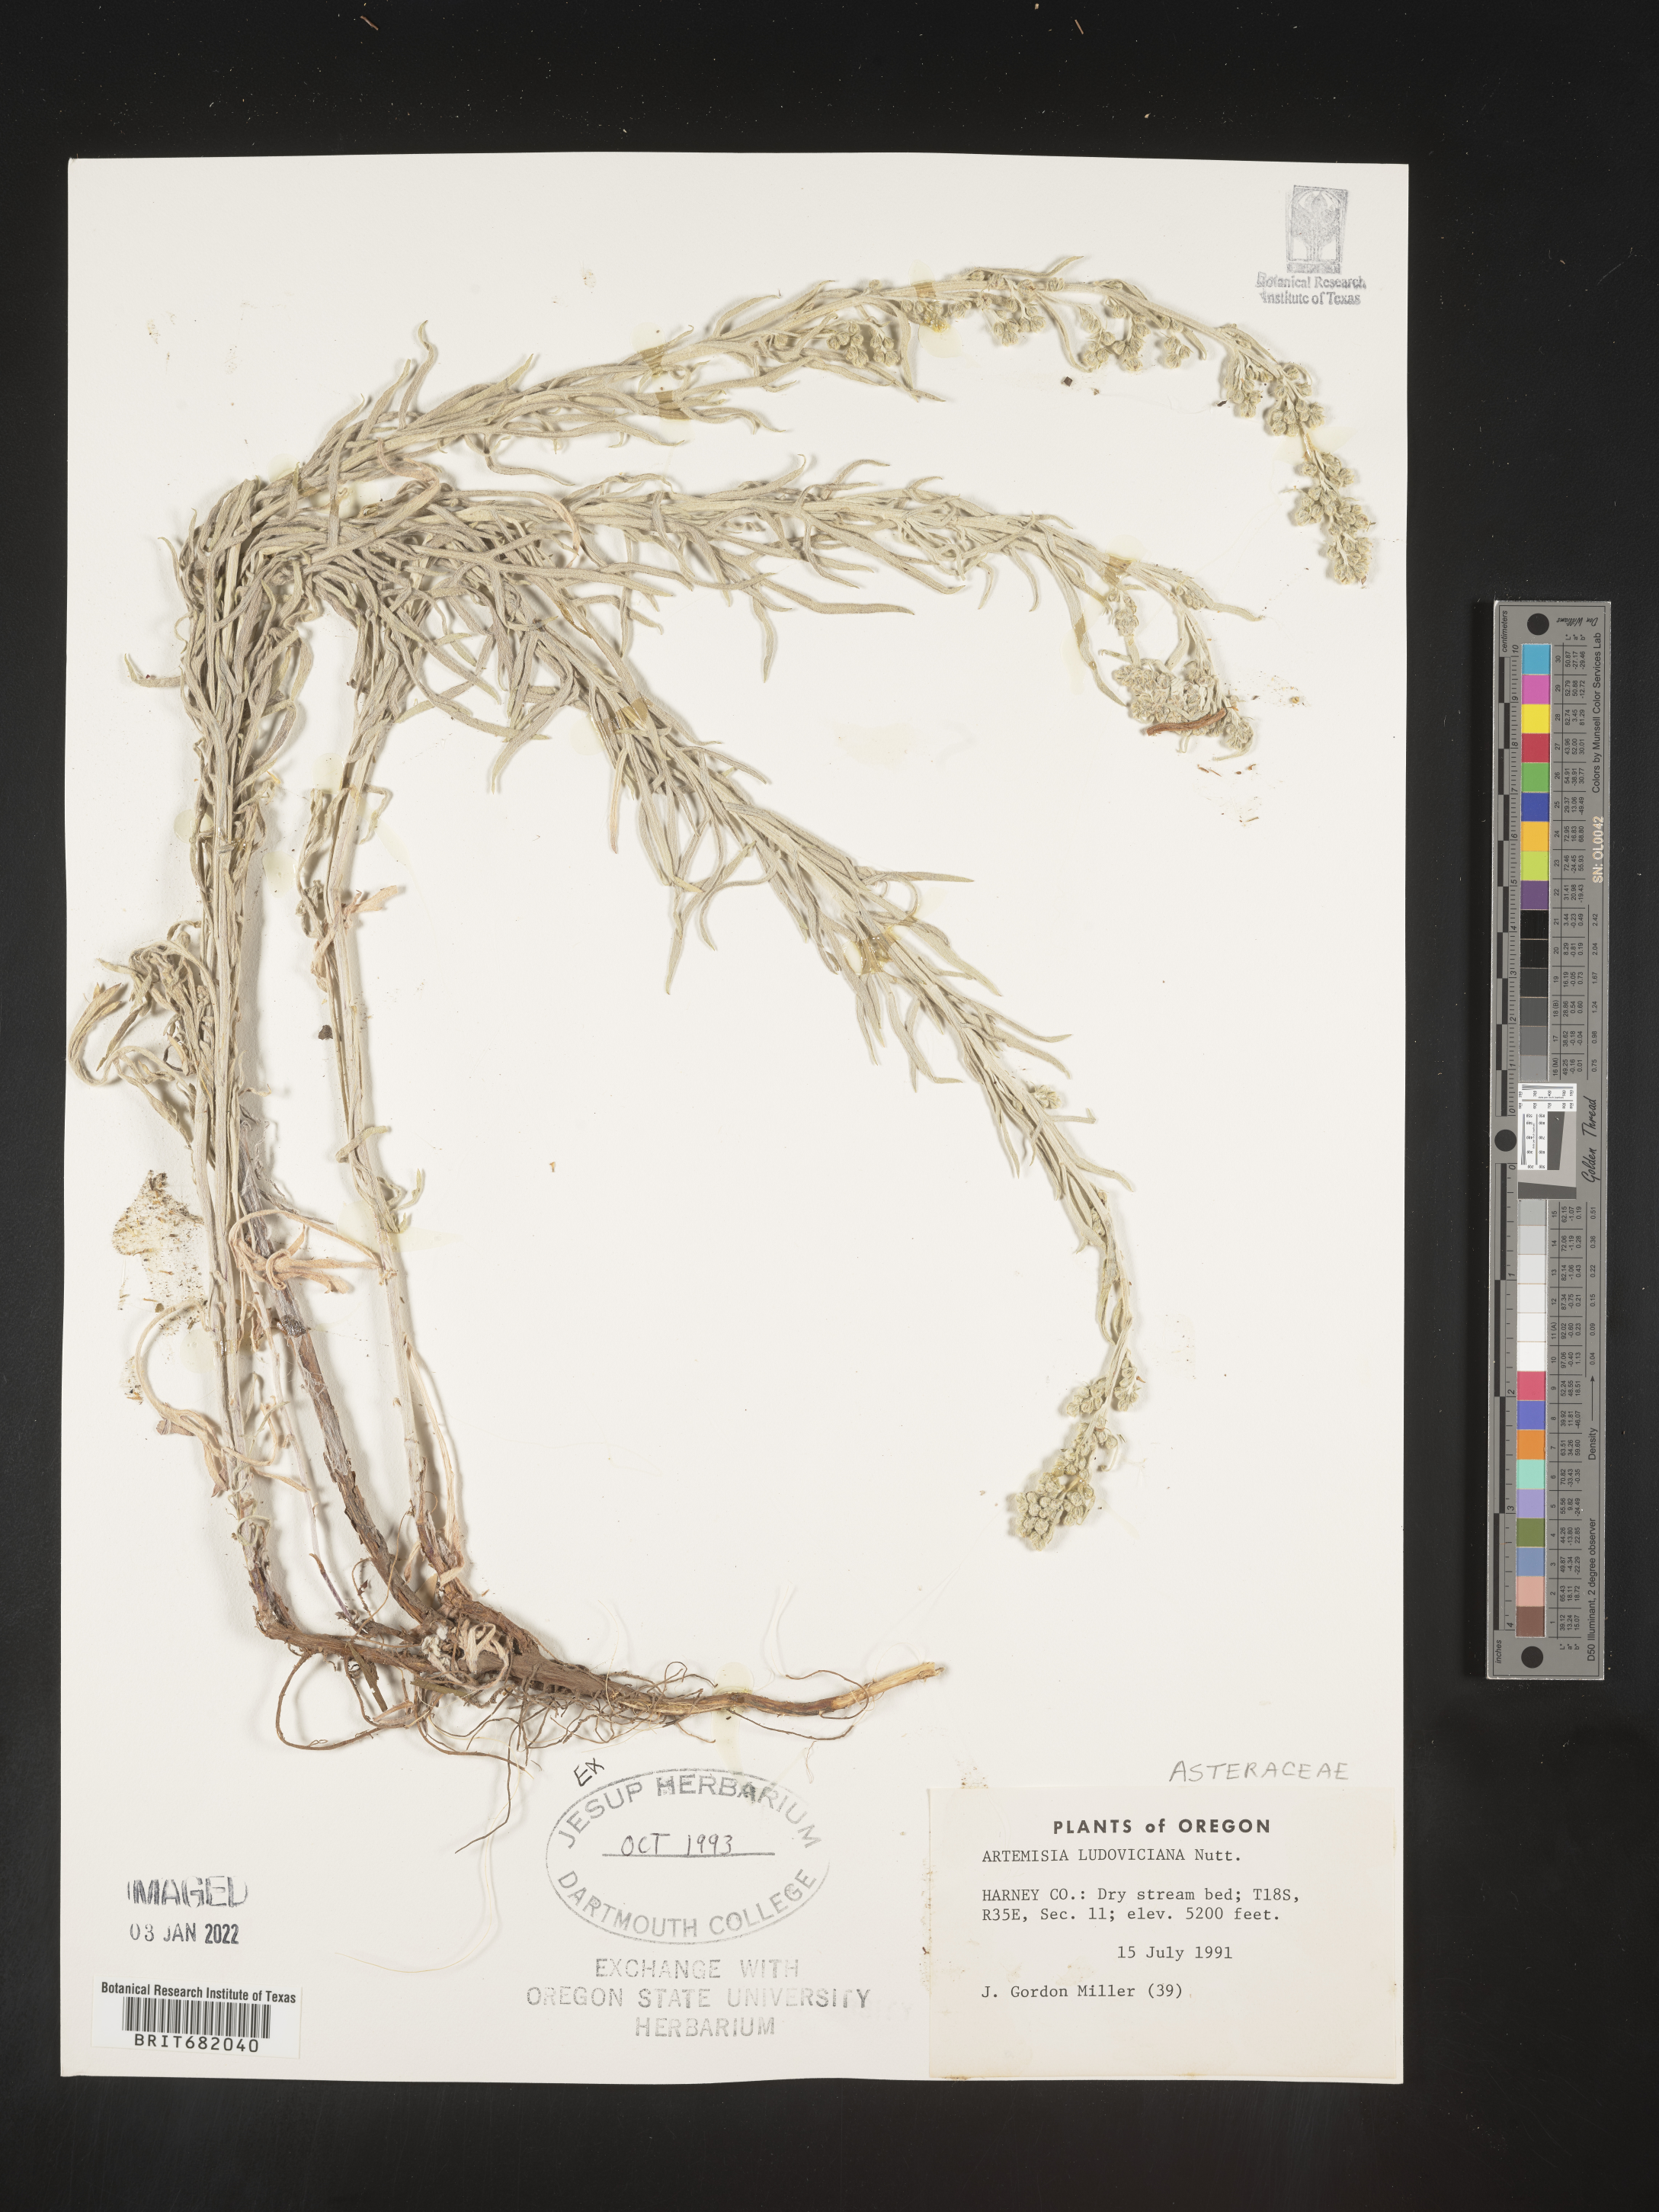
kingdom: Plantae
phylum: Tracheophyta
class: Magnoliopsida
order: Asterales
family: Asteraceae
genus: Artemisia
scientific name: Artemisia ludoviciana
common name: Western mugwort
